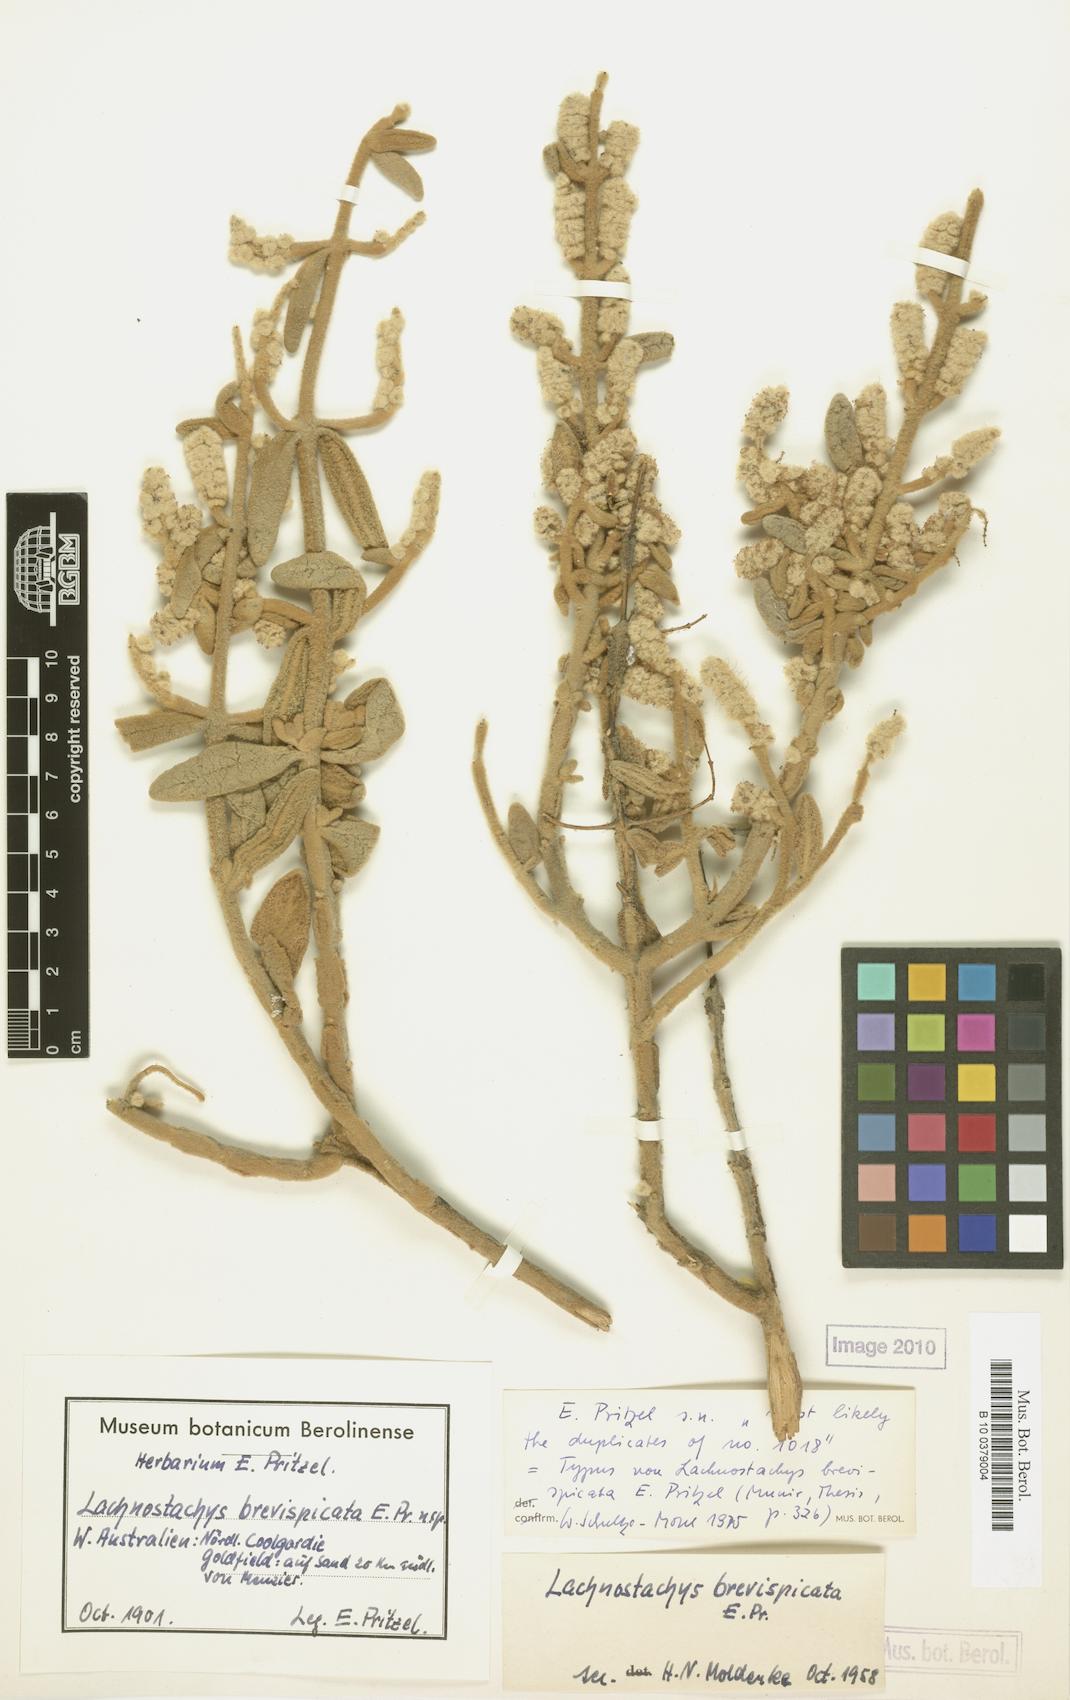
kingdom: Plantae
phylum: Tracheophyta
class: Magnoliopsida
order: Lamiales
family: Lamiaceae
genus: Lachnostachys
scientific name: Lachnostachys coolgardiensis
